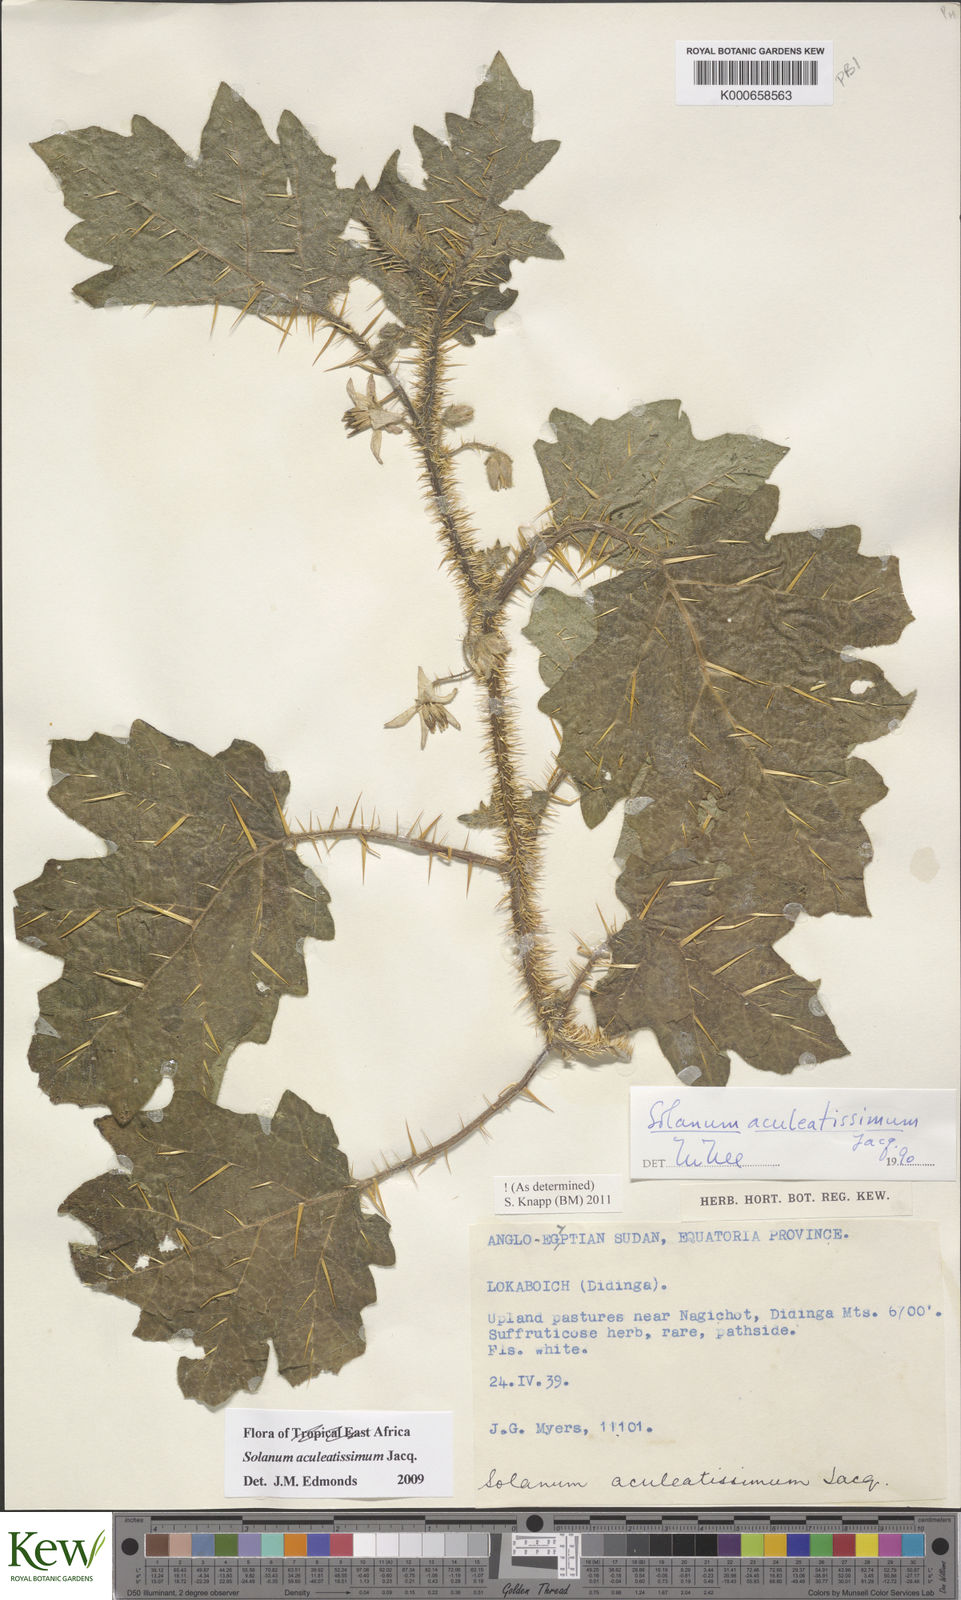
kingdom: Plantae
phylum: Tracheophyta
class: Magnoliopsida
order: Solanales
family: Solanaceae
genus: Solanum
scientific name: Solanum aculeatissimum
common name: Dutch eggplant
